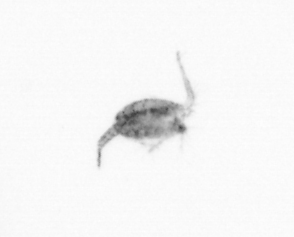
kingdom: Animalia
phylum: Arthropoda
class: Copepoda
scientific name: Copepoda
